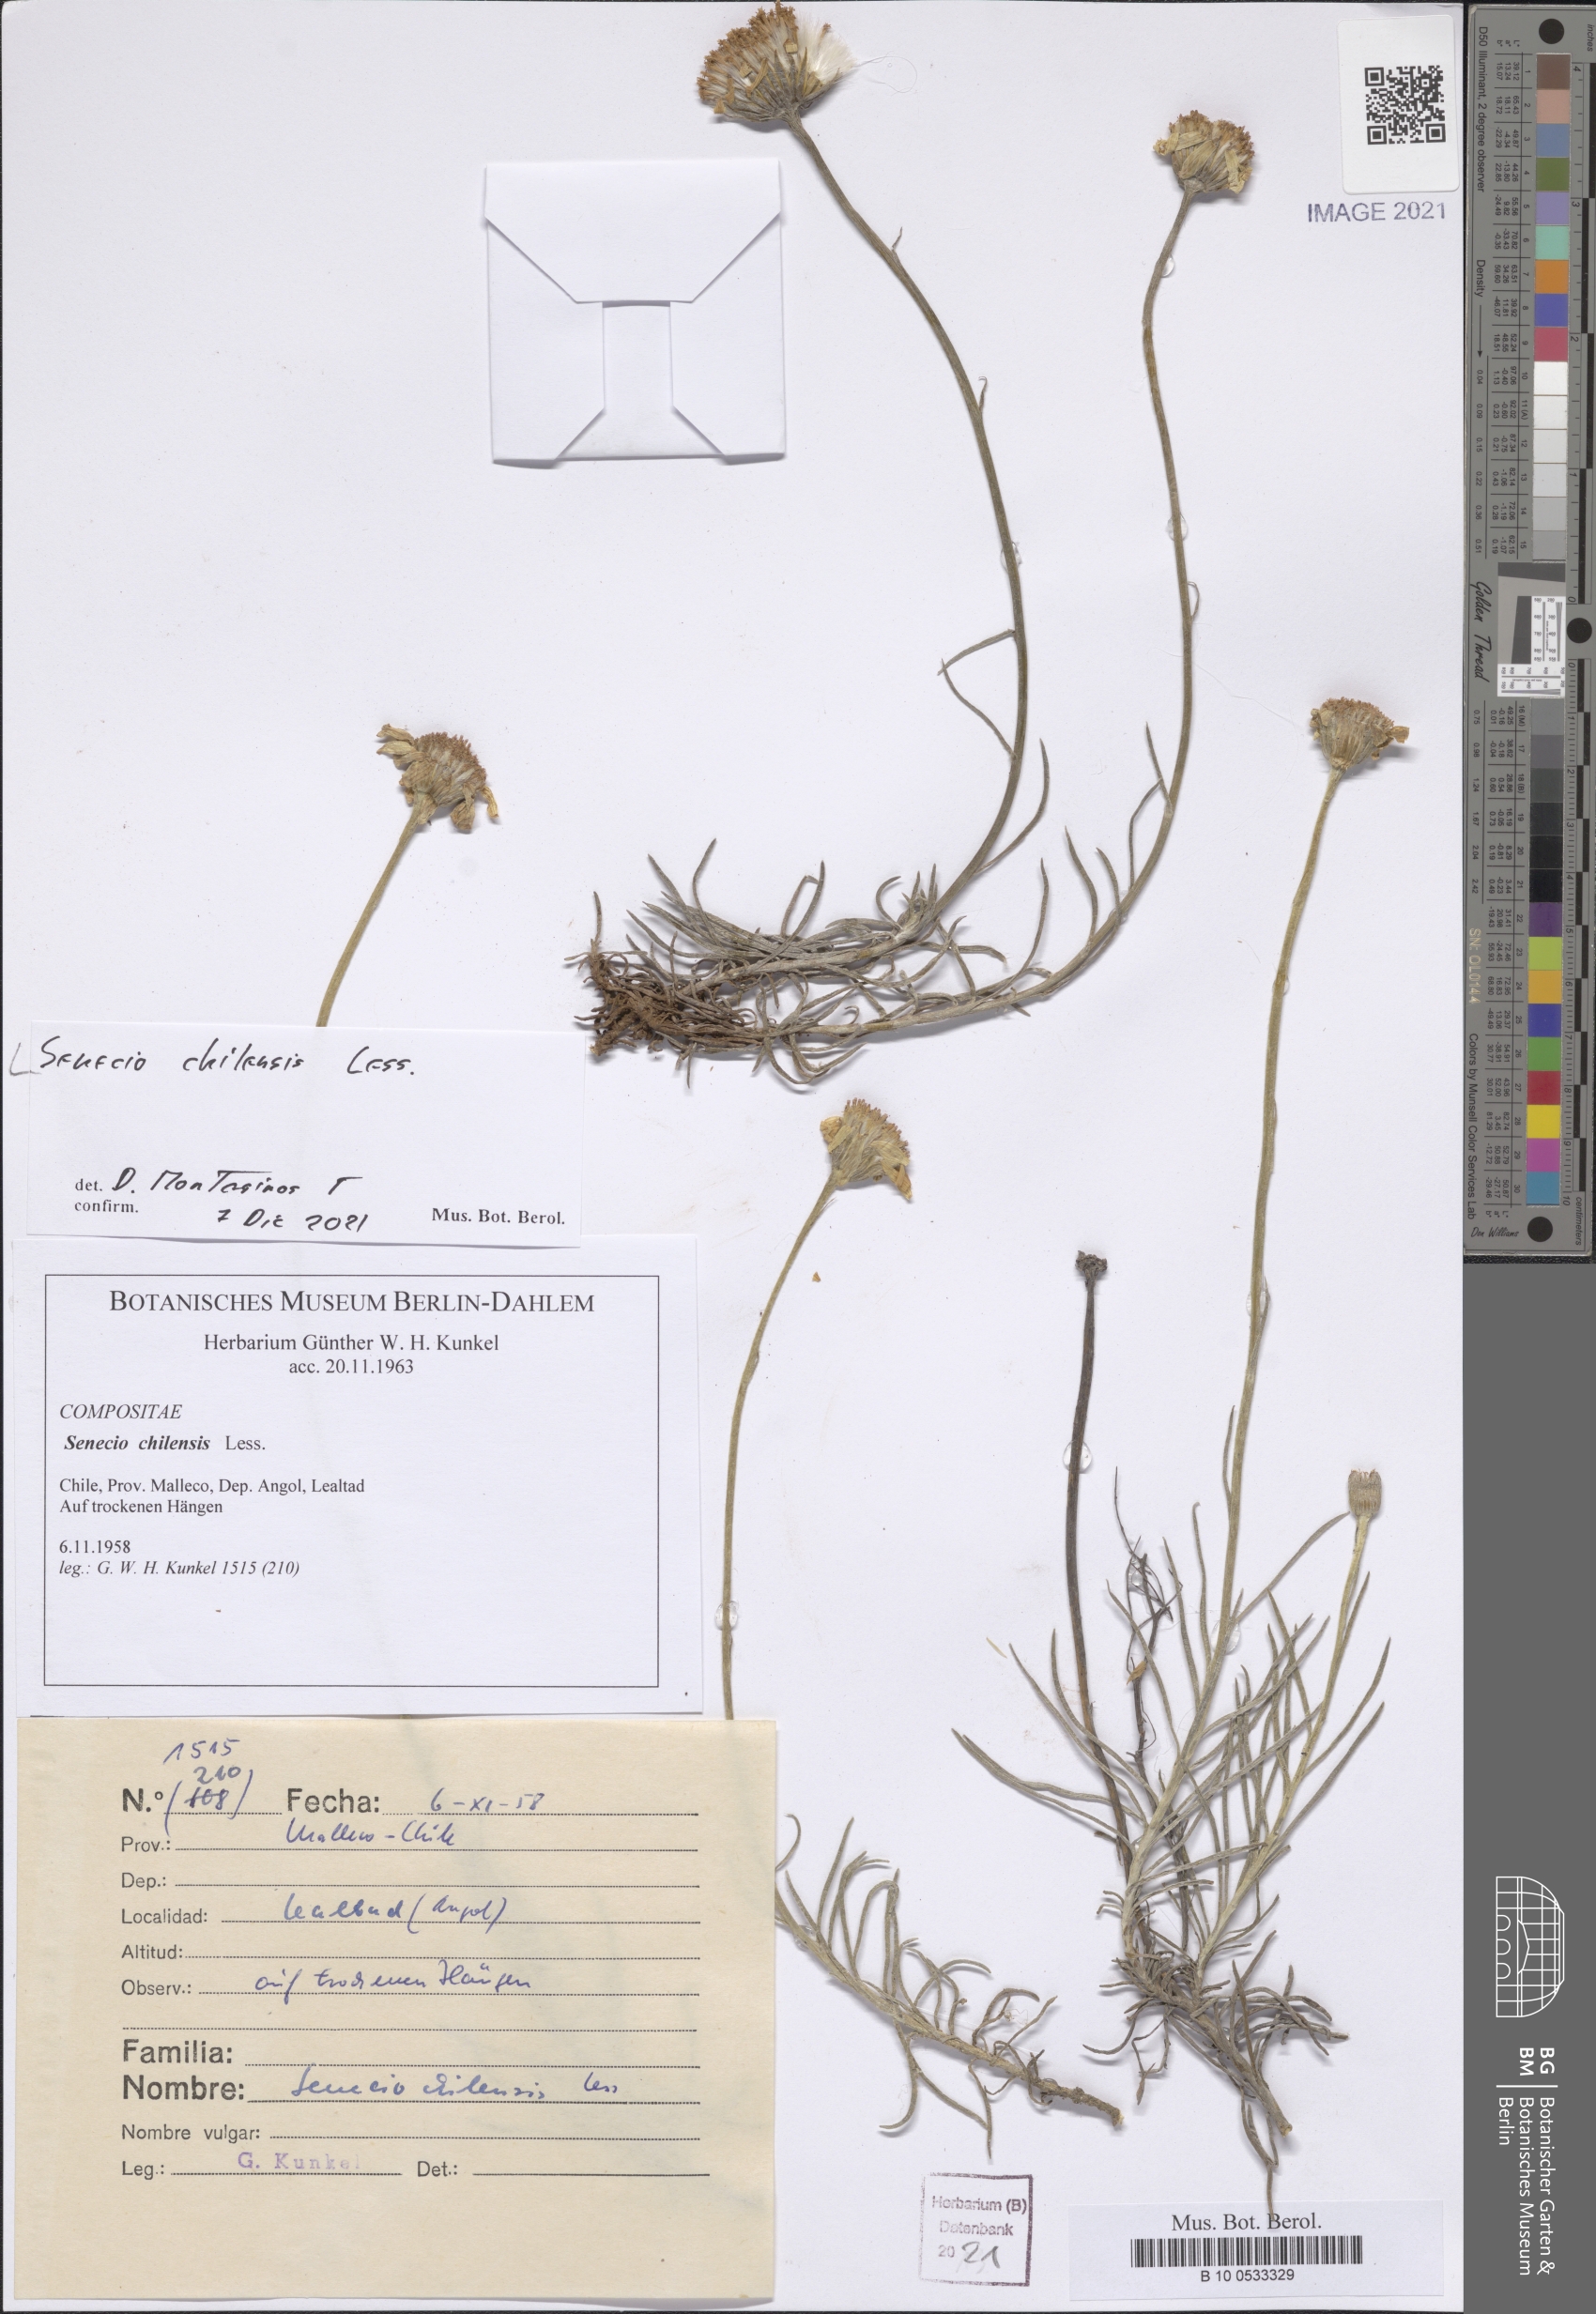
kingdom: Plantae
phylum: Tracheophyta
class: Magnoliopsida
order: Asterales
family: Asteraceae
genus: Senecio
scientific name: Senecio chilensis
